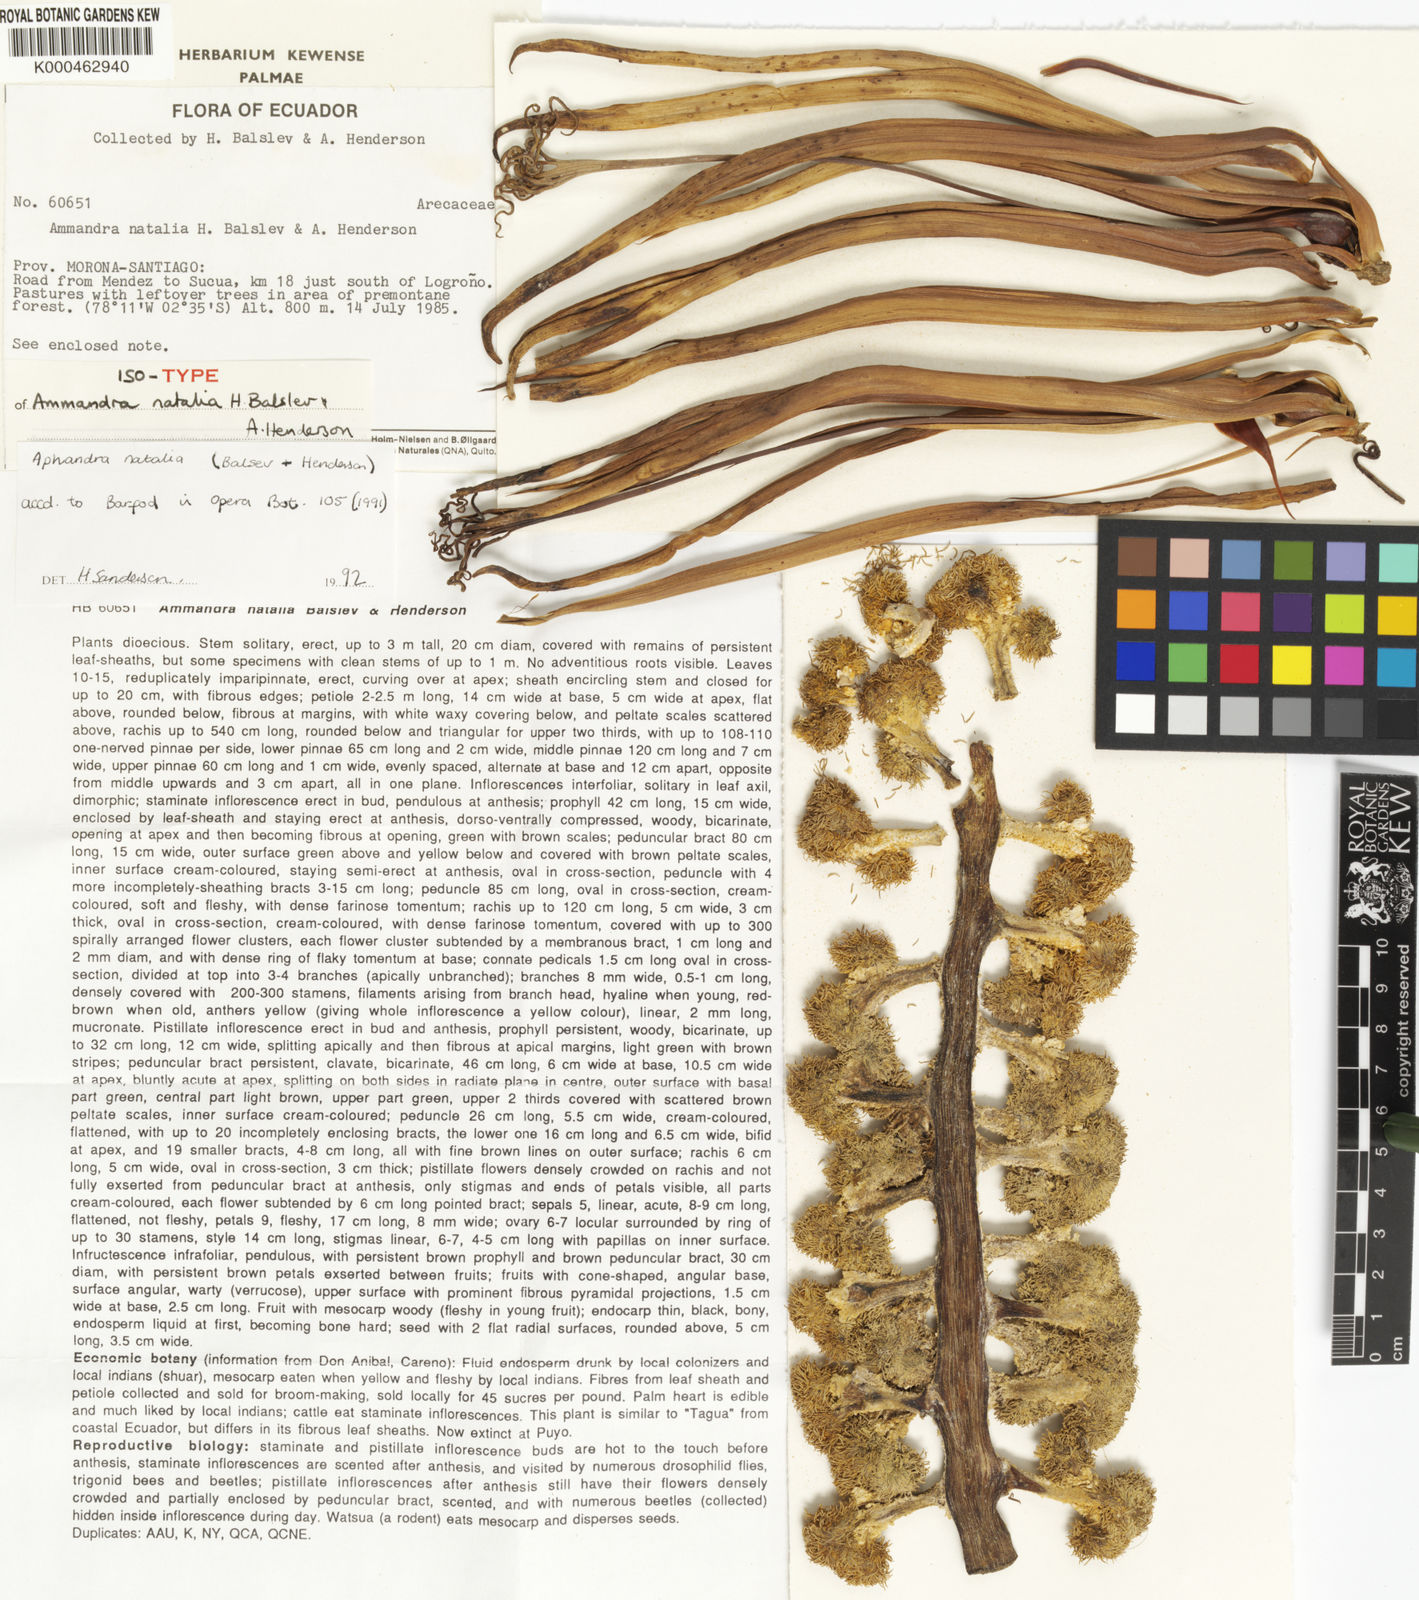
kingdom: Plantae
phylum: Tracheophyta
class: Liliopsida
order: Arecales
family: Arecaceae
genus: Aphandra
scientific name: Aphandra natalia
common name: Fiber palm
